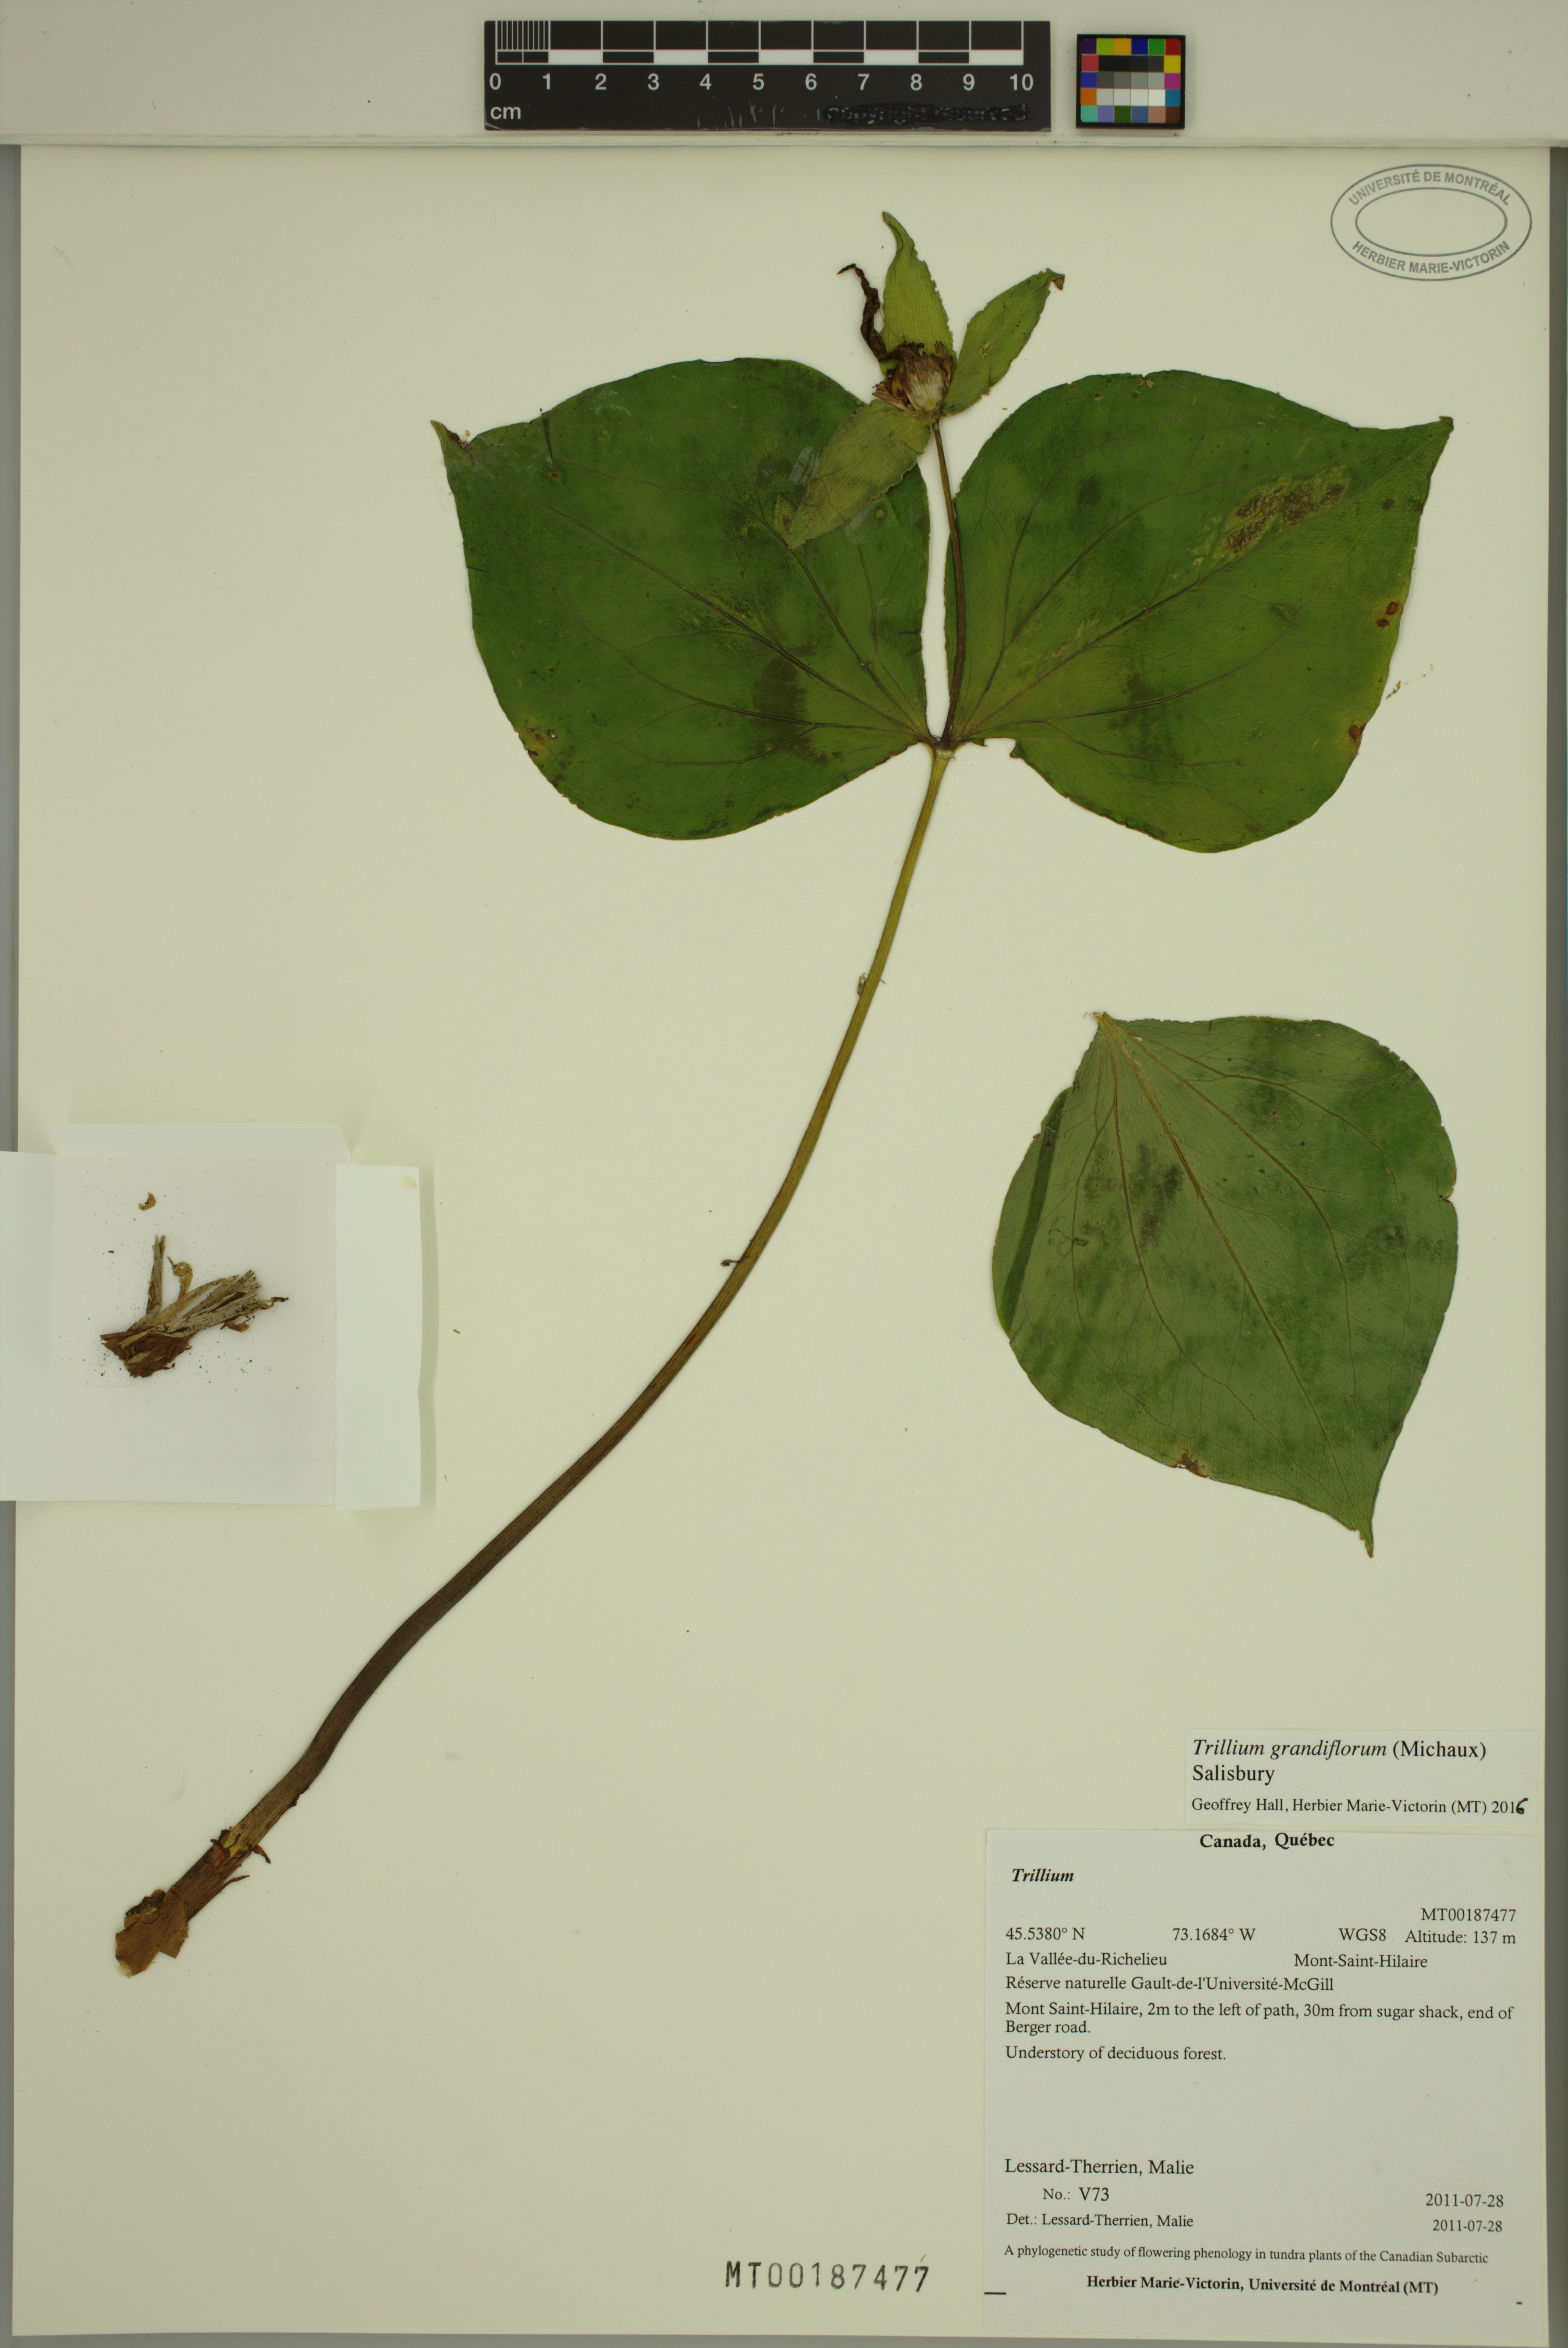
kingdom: Plantae
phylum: Tracheophyta
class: Liliopsida
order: Liliales
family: Melanthiaceae
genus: Trillium
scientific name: Trillium grandiflorum
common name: Great white trillium
